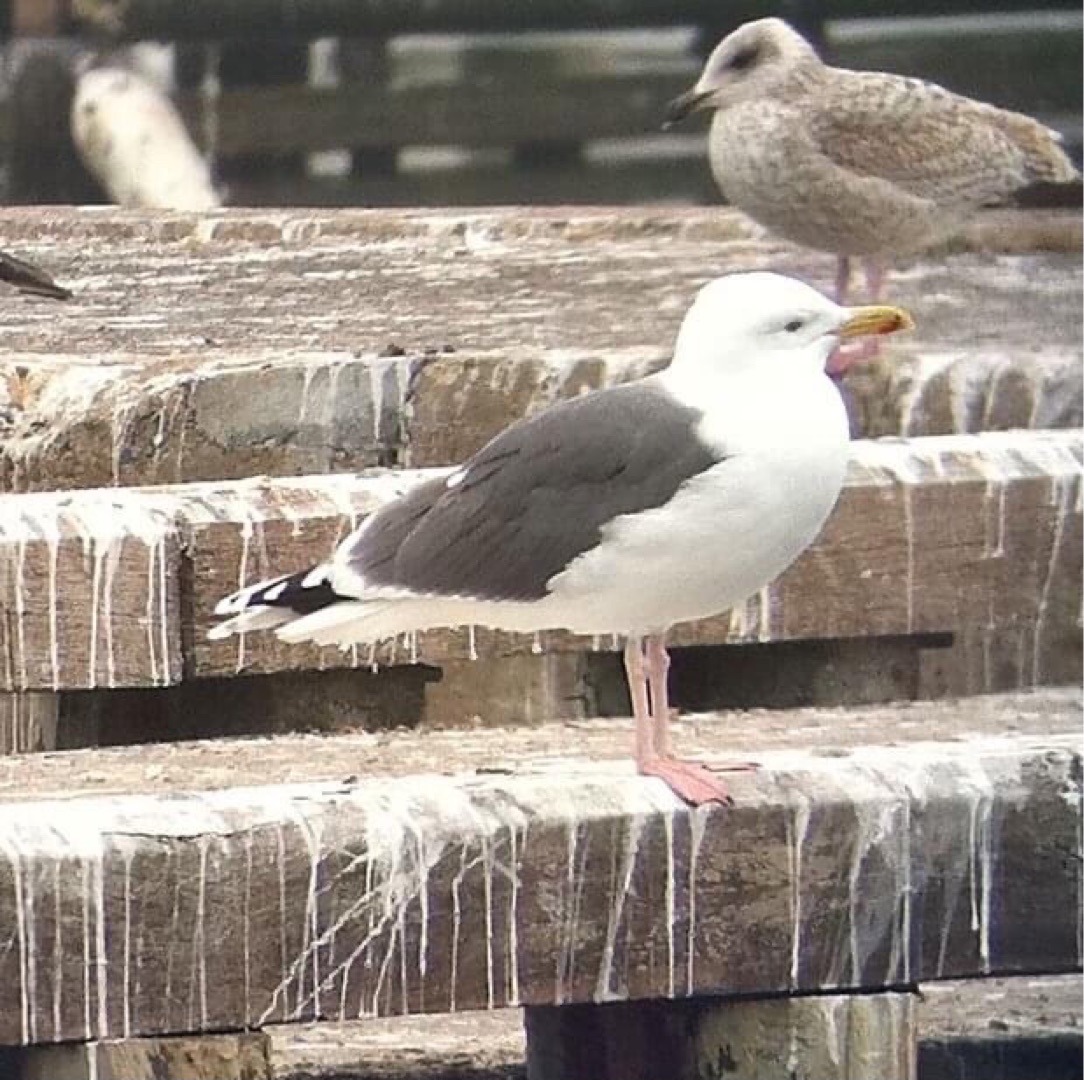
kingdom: Animalia
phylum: Chordata
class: Aves
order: Charadriiformes
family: Laridae
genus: Larus
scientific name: Larus marinus
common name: Svartbag
